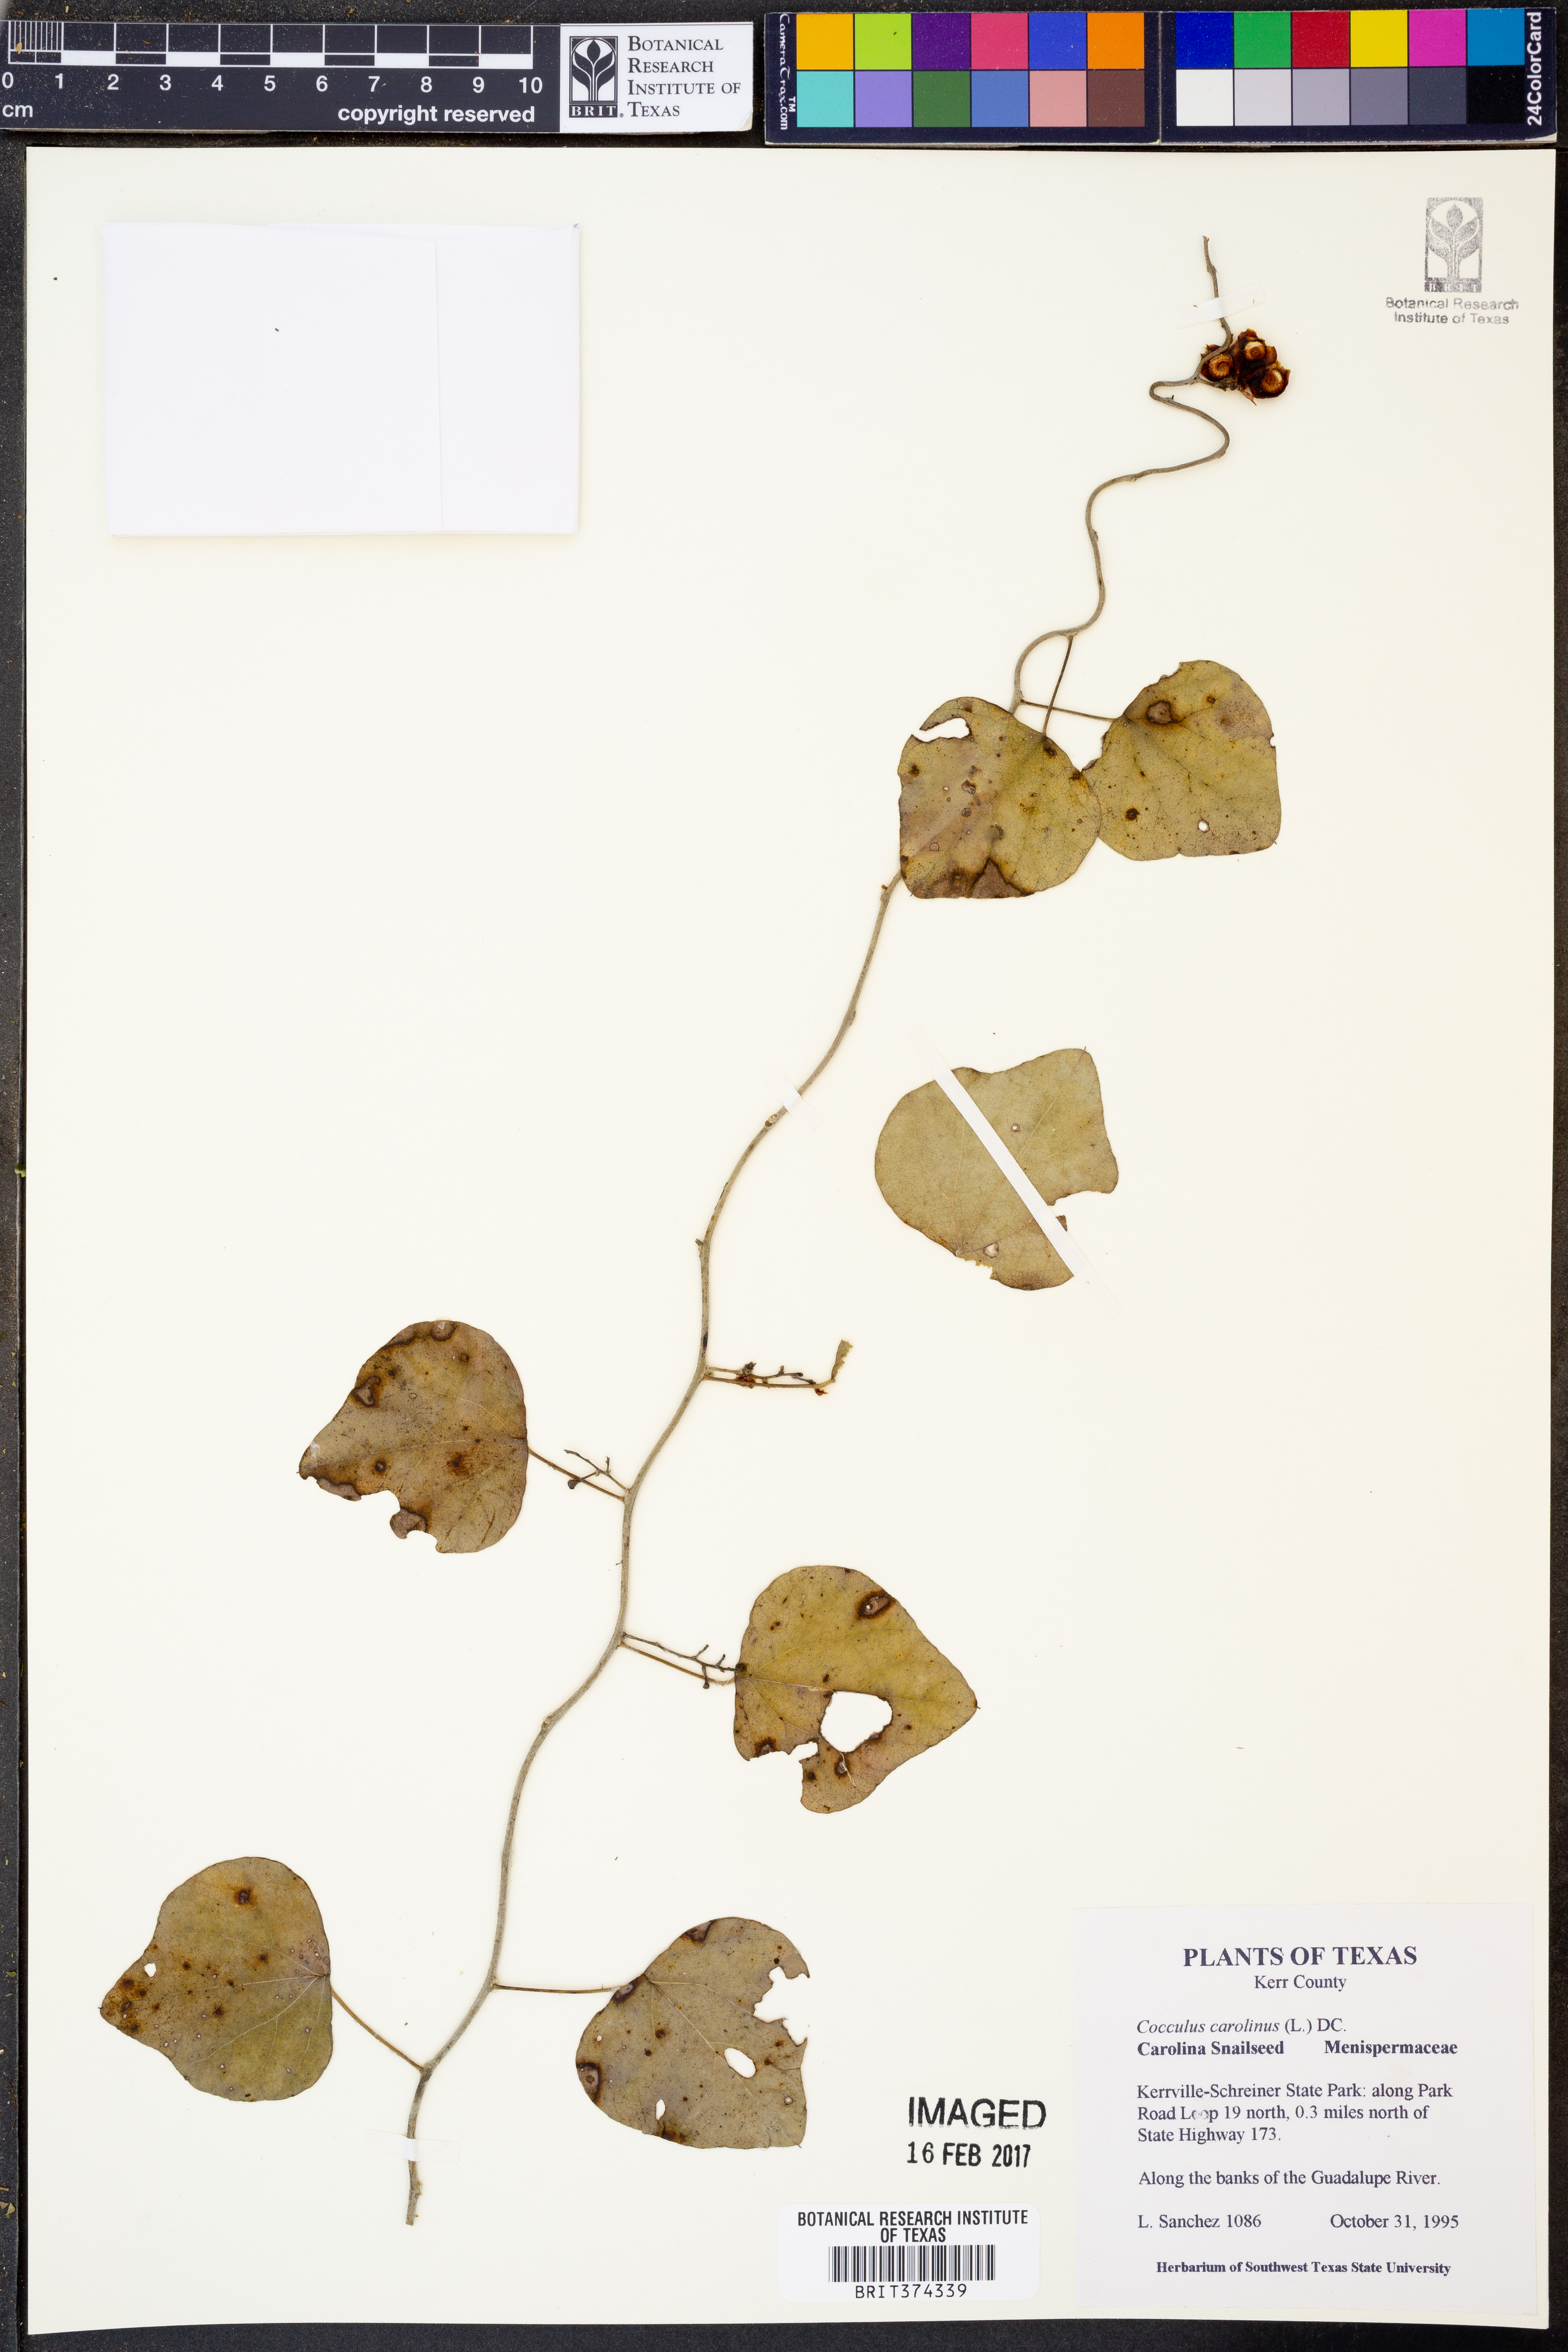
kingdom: Plantae
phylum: Tracheophyta
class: Magnoliopsida
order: Ranunculales
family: Menispermaceae
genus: Cocculus
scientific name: Cocculus carolinus
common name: Carolina moonseed
